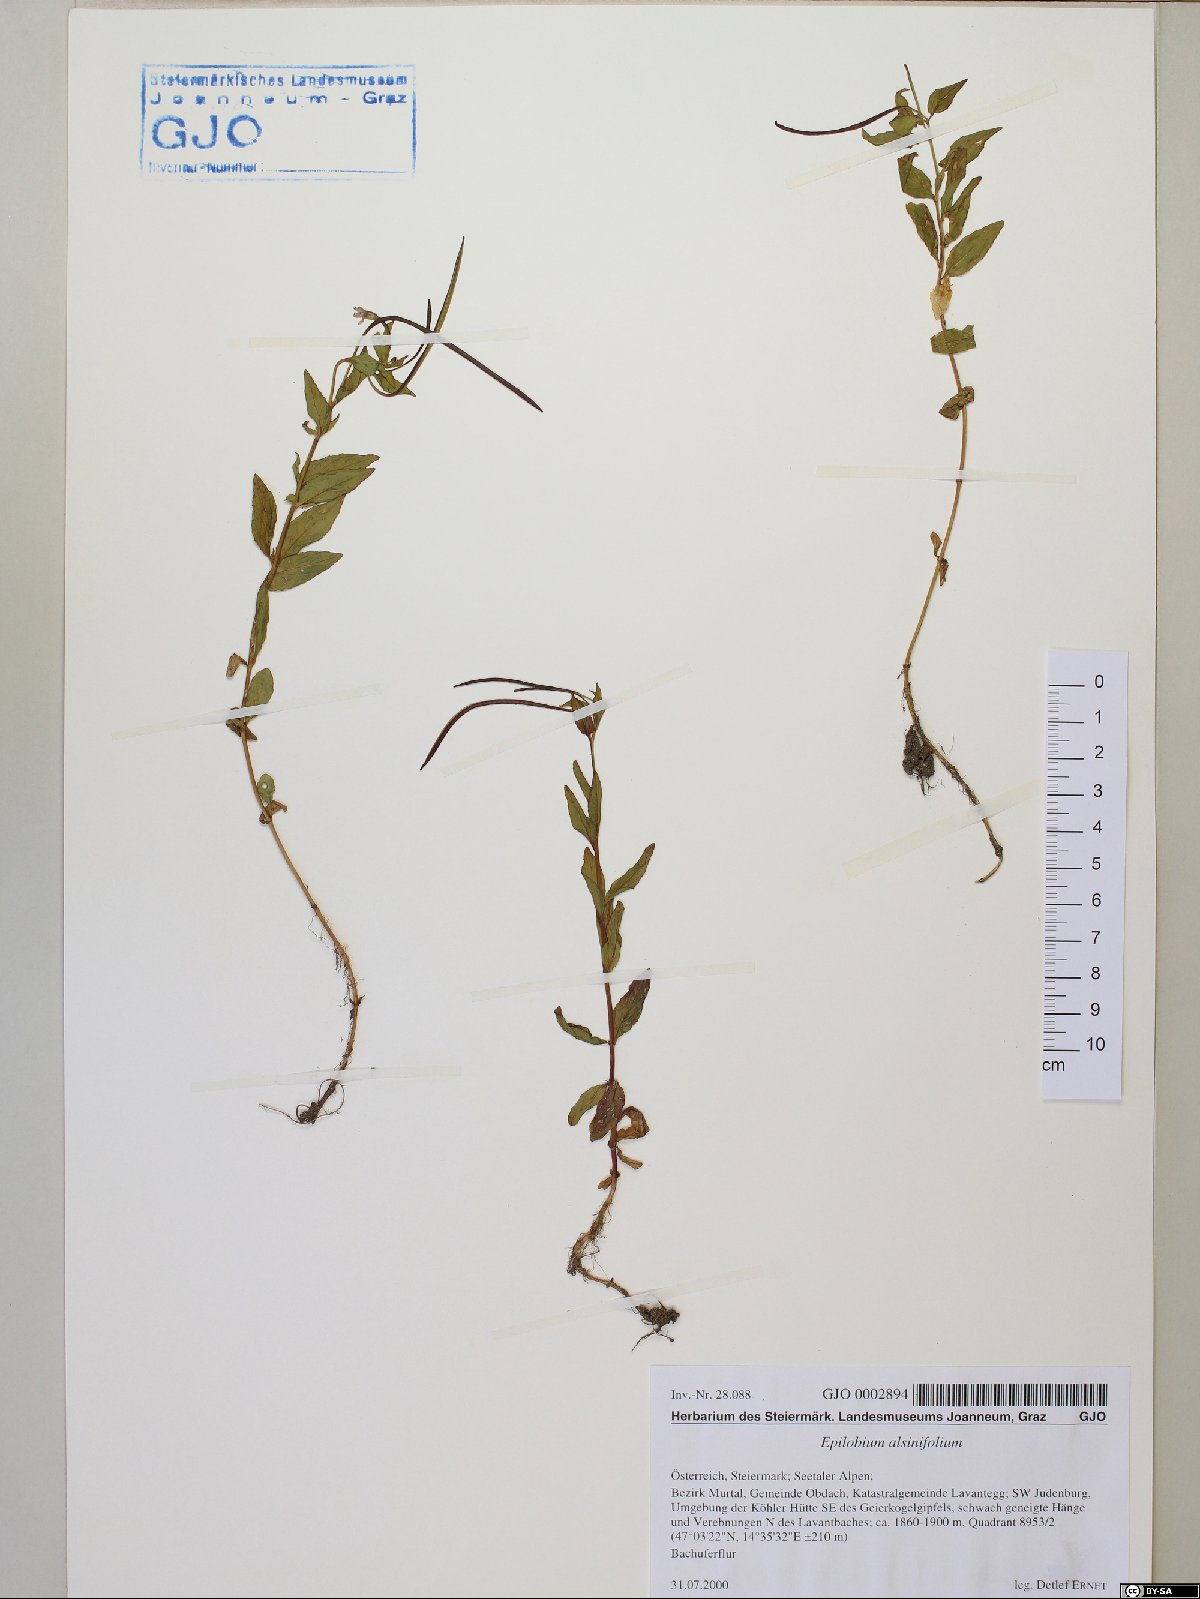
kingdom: Plantae
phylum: Tracheophyta
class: Magnoliopsida
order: Myrtales
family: Onagraceae
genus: Epilobium
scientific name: Epilobium alsinifolium
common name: Chickweed willowherb
